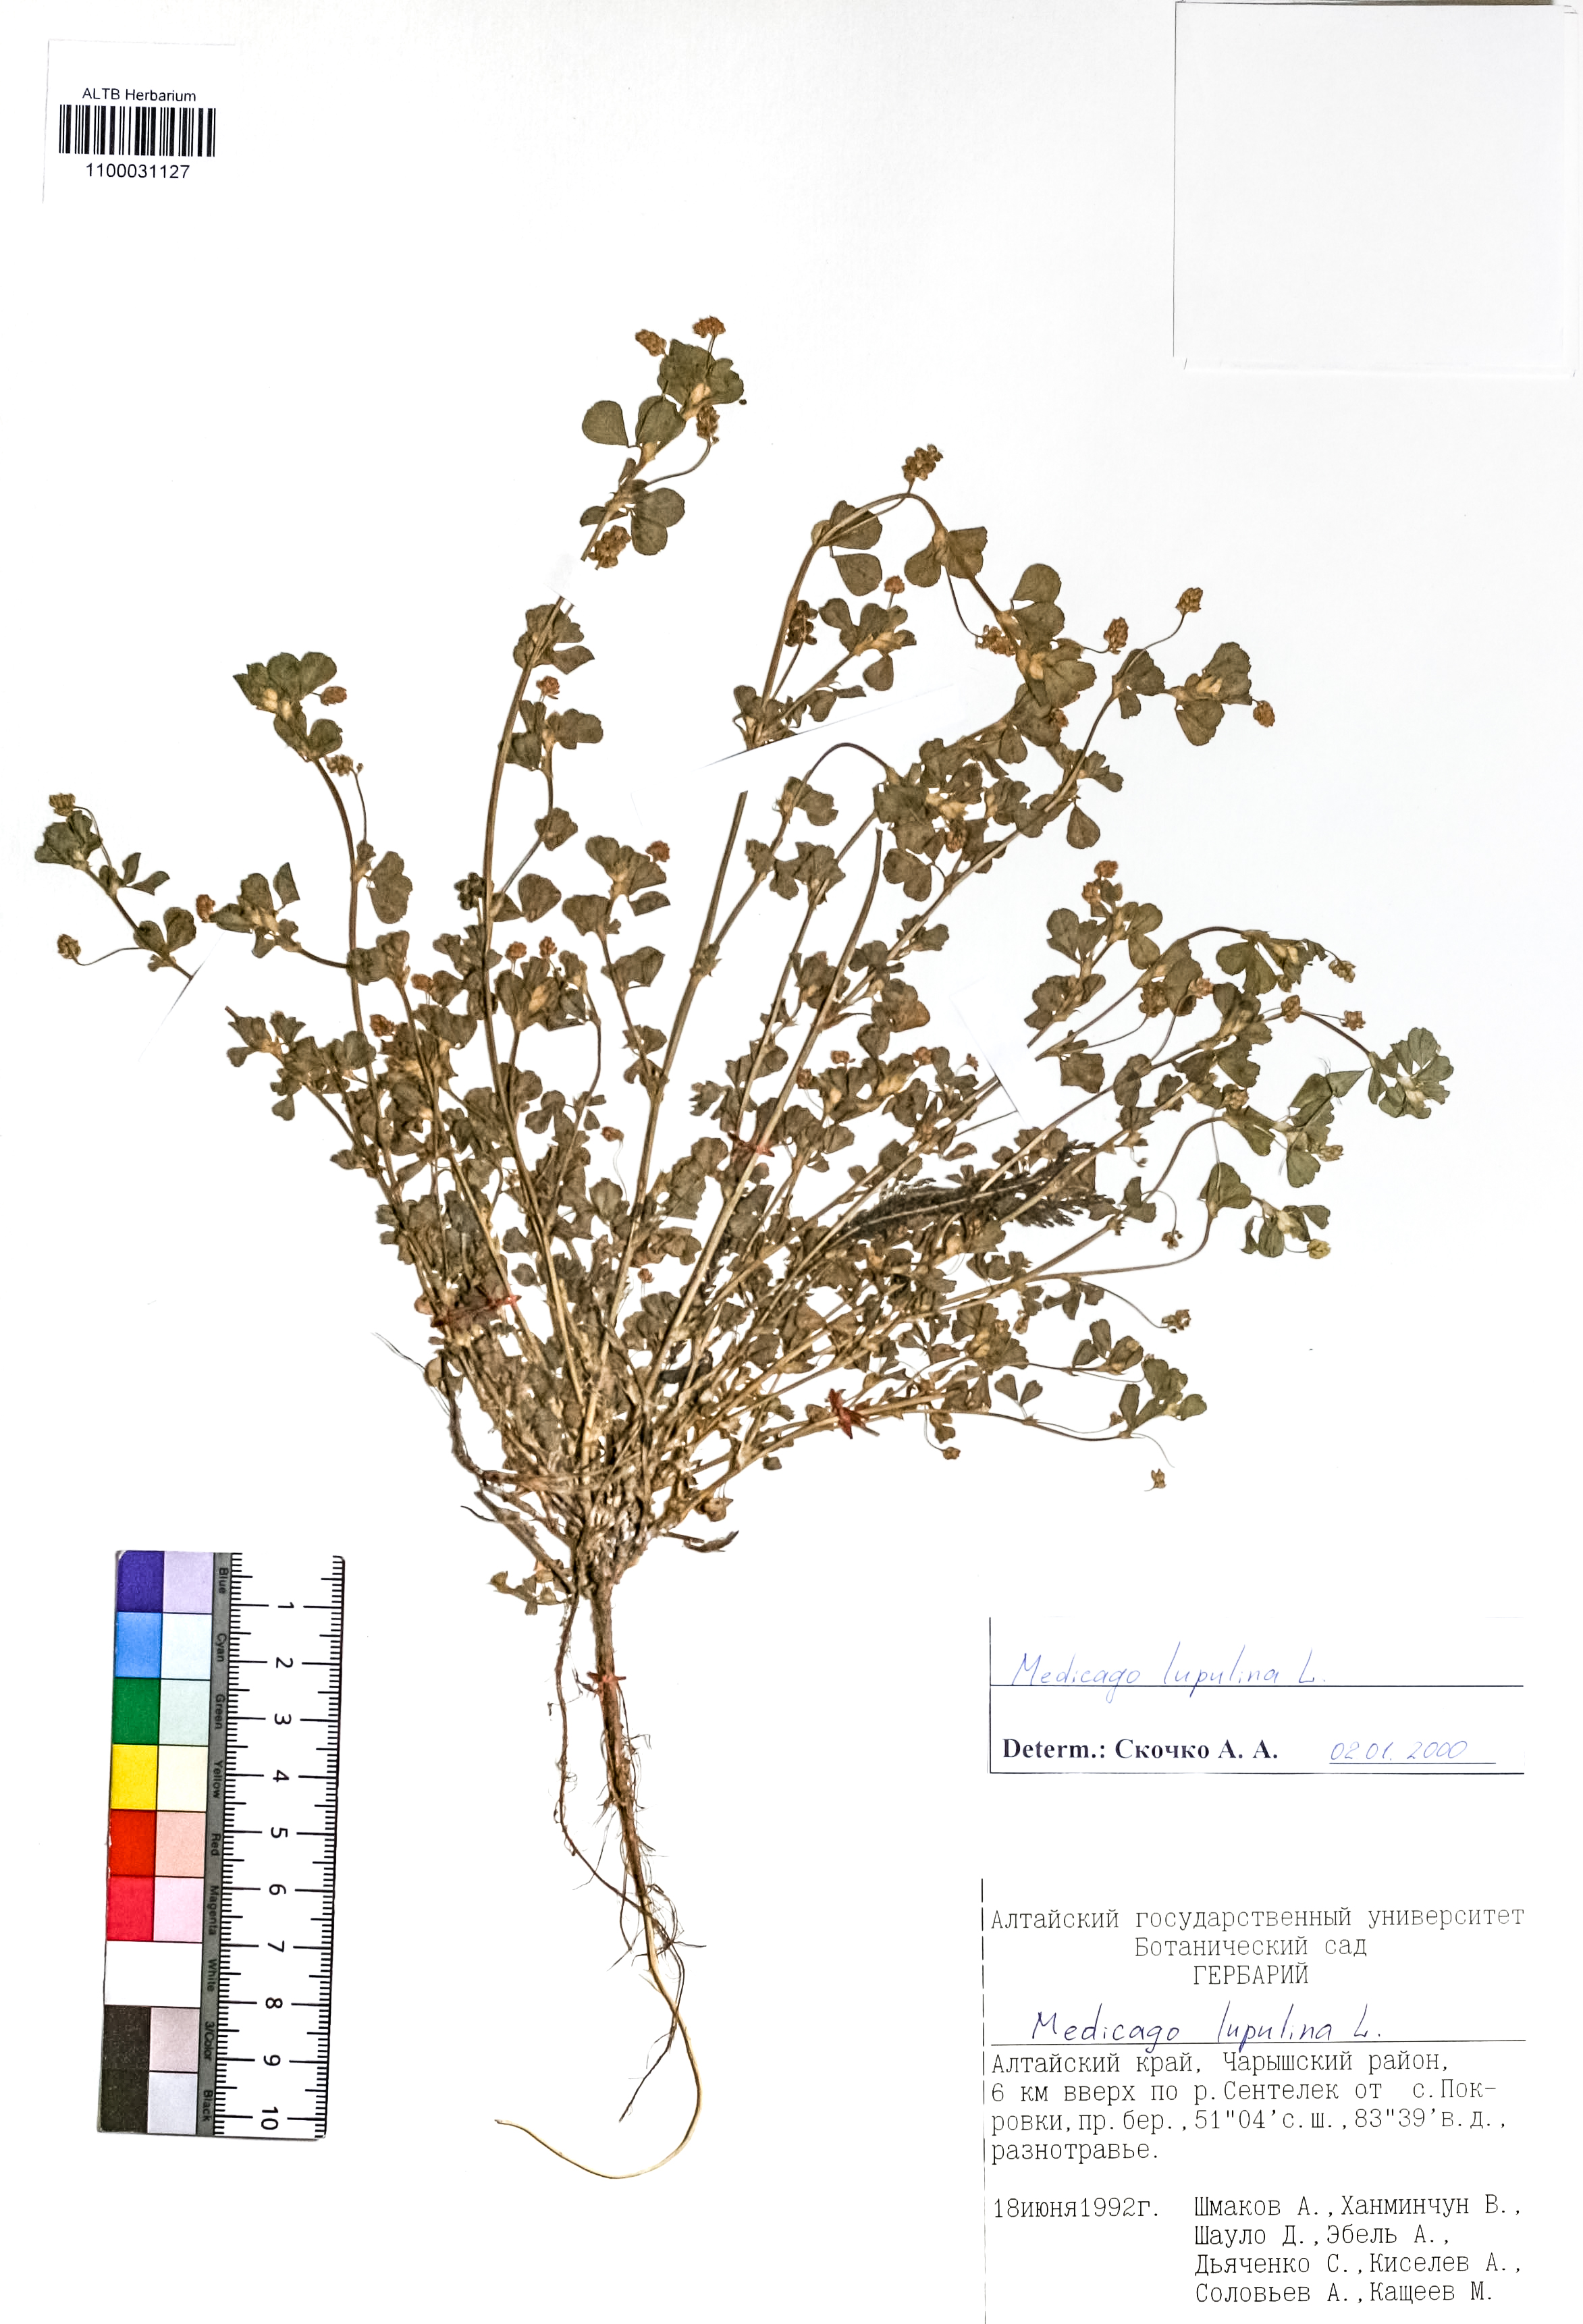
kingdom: Plantae
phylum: Tracheophyta
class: Magnoliopsida
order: Fabales
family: Fabaceae
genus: Medicago
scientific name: Medicago lupulina
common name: Black medick
